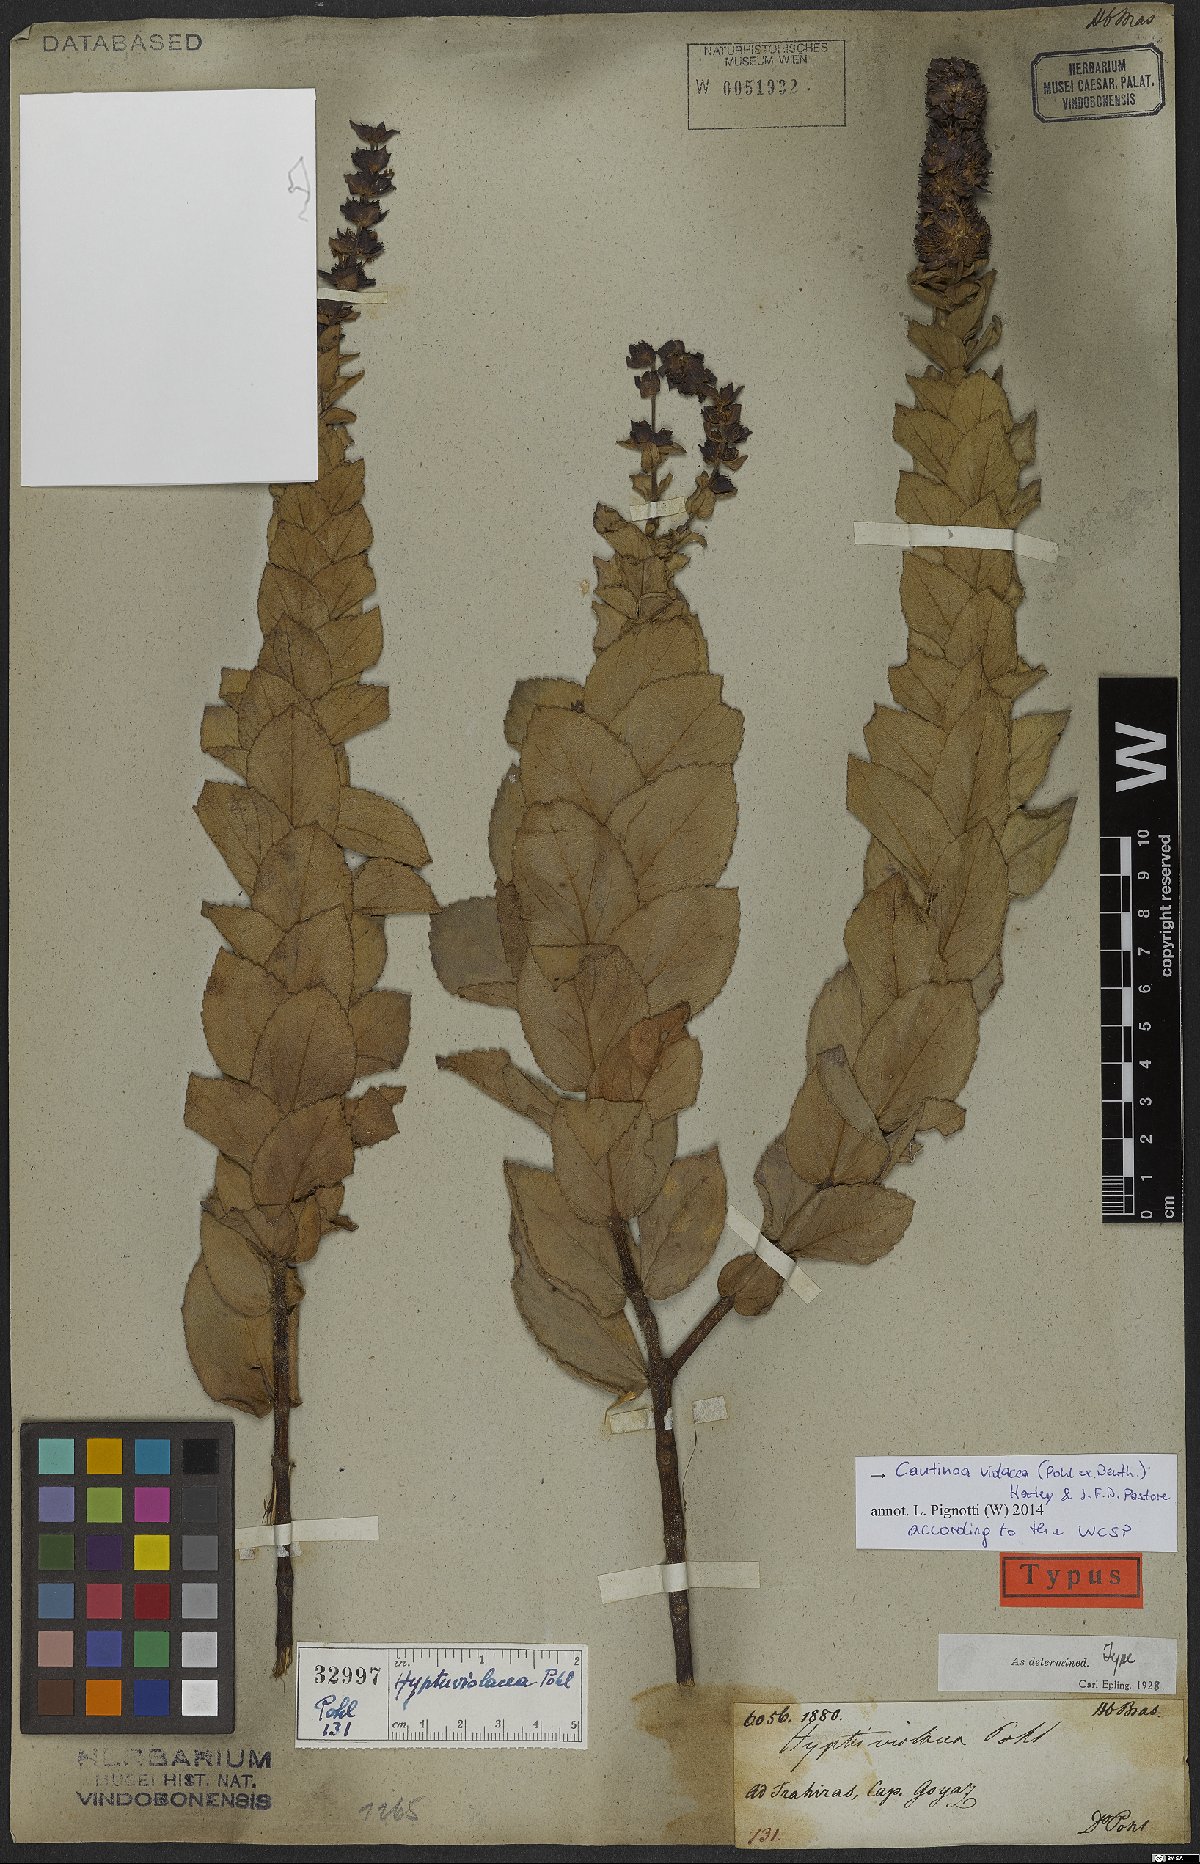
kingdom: Plantae
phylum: Tracheophyta
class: Magnoliopsida
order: Lamiales
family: Lamiaceae
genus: Cantinoa
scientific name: Cantinoa violacea
